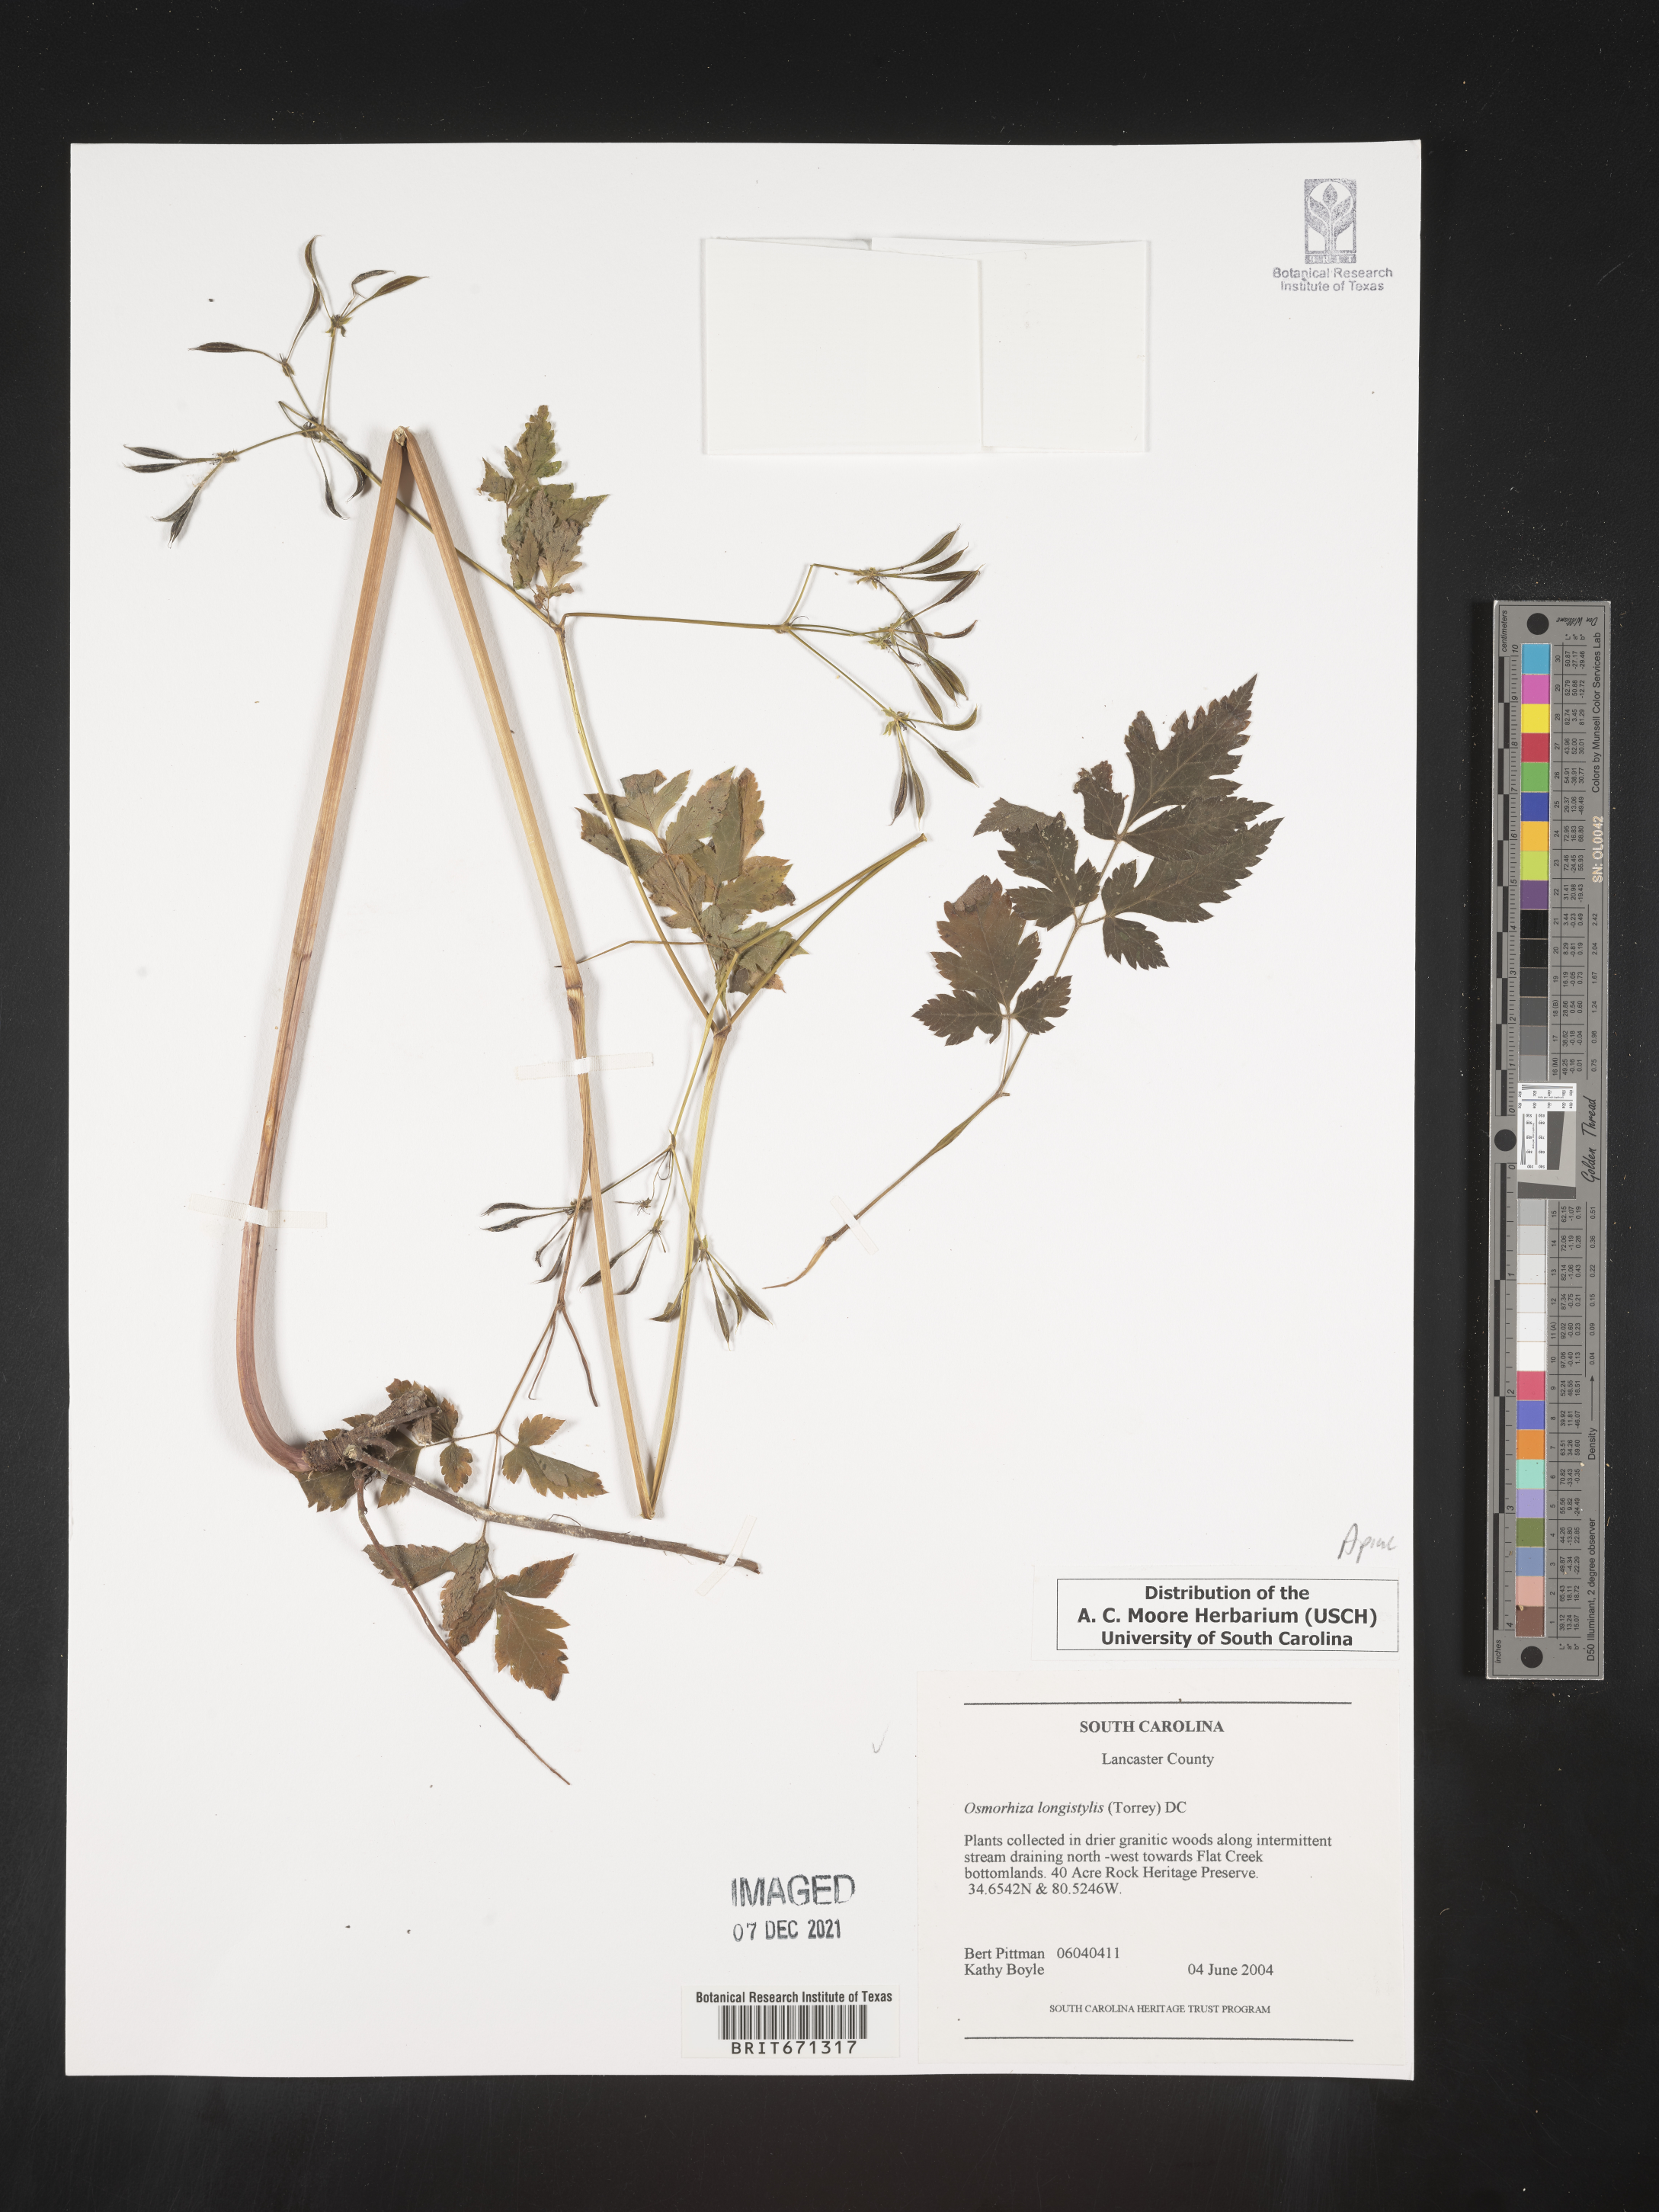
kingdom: Plantae
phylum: Tracheophyta
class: Magnoliopsida
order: Apiales
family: Apiaceae
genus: Osmorhiza
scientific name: Osmorhiza longistylis
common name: Smooth sweet cicely
